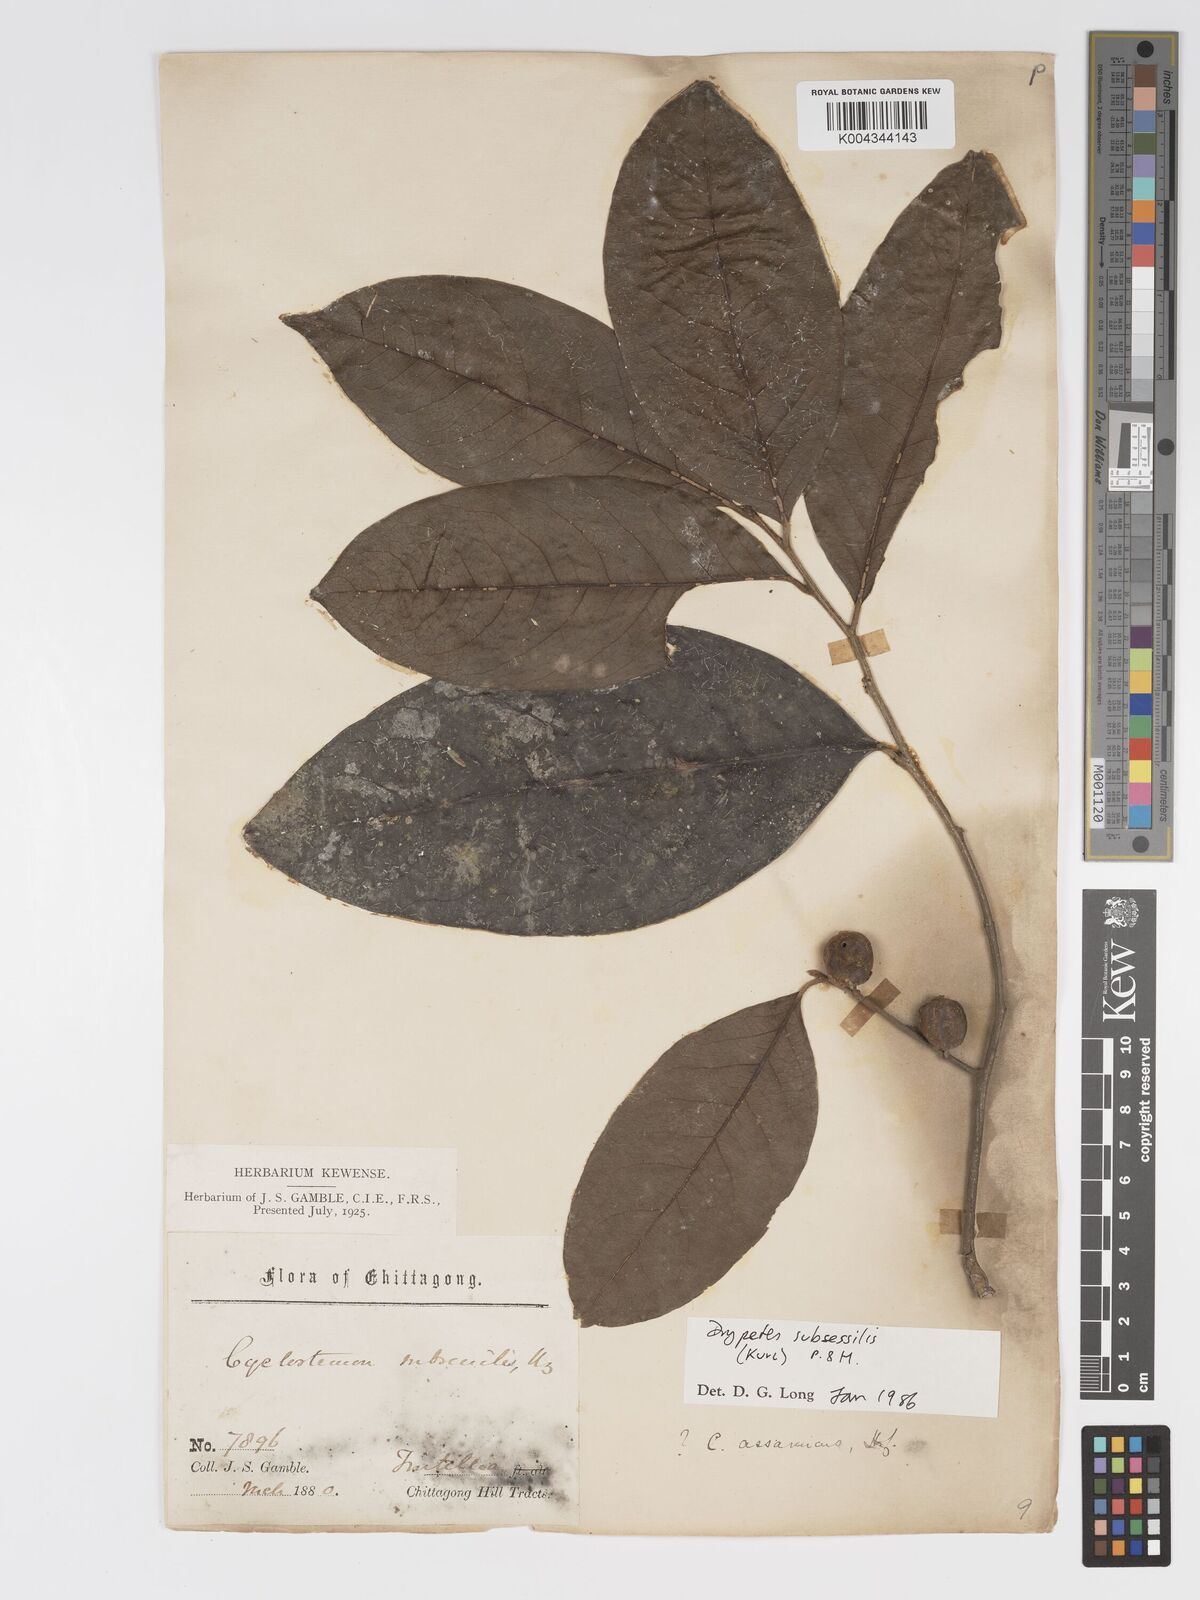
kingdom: Plantae
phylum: Tracheophyta
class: Magnoliopsida
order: Malpighiales
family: Putranjivaceae
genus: Drypetes
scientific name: Drypetes subsessilis
